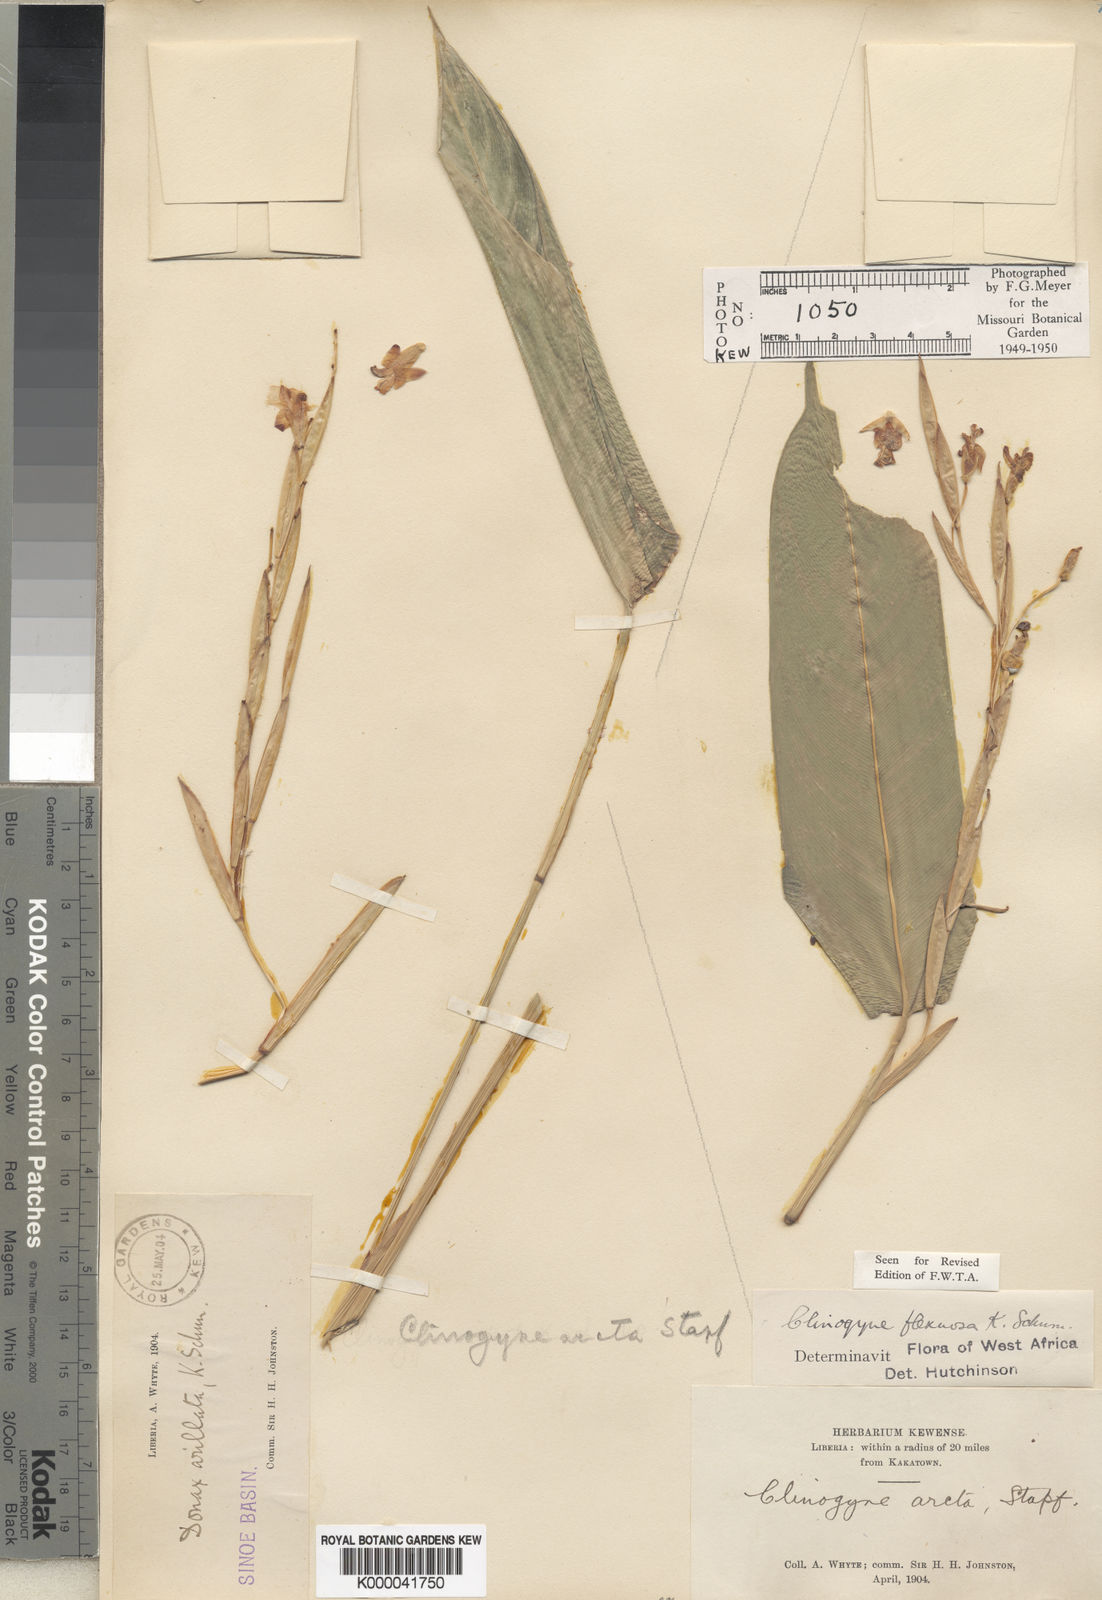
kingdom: Plantae
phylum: Tracheophyta
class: Liliopsida
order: Zingiberales
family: Marantaceae
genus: Marantochloa
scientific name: Marantochloa cuspidata
